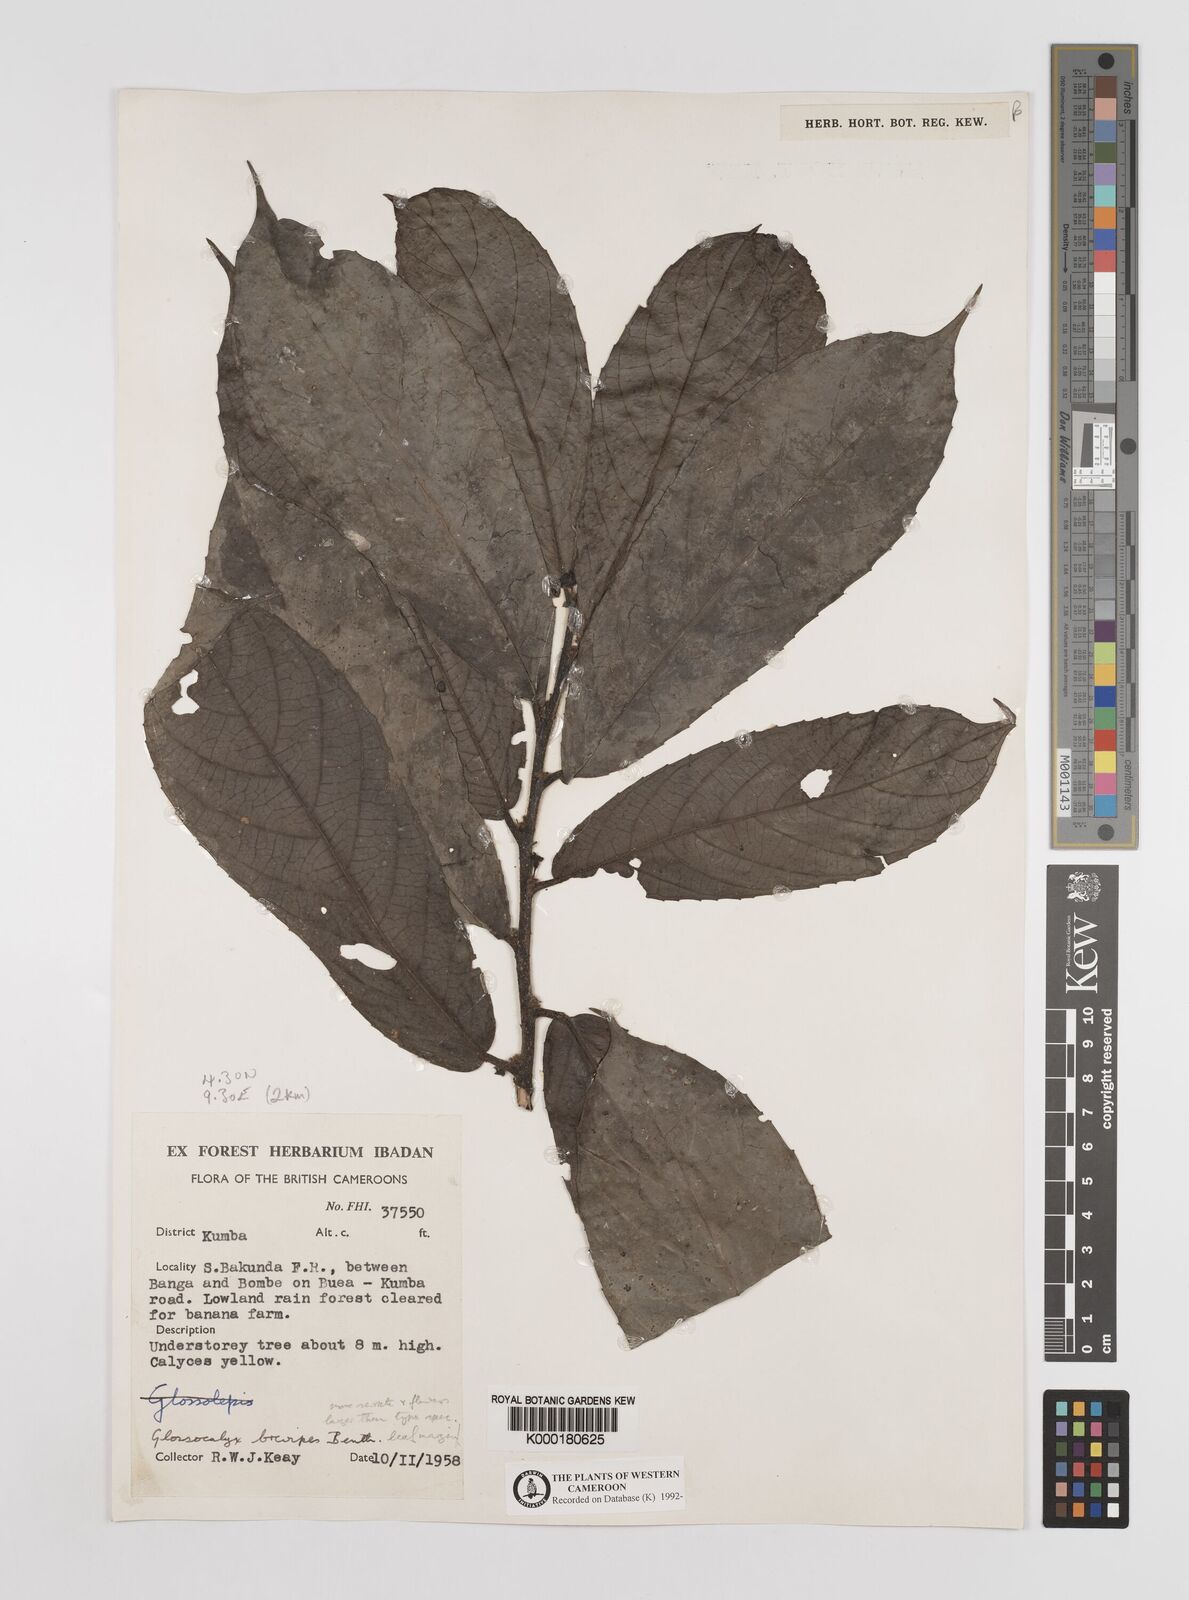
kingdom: Plantae
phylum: Tracheophyta
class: Magnoliopsida
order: Laurales
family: Siparunaceae
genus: Glossocalyx
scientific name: Glossocalyx brevipes
